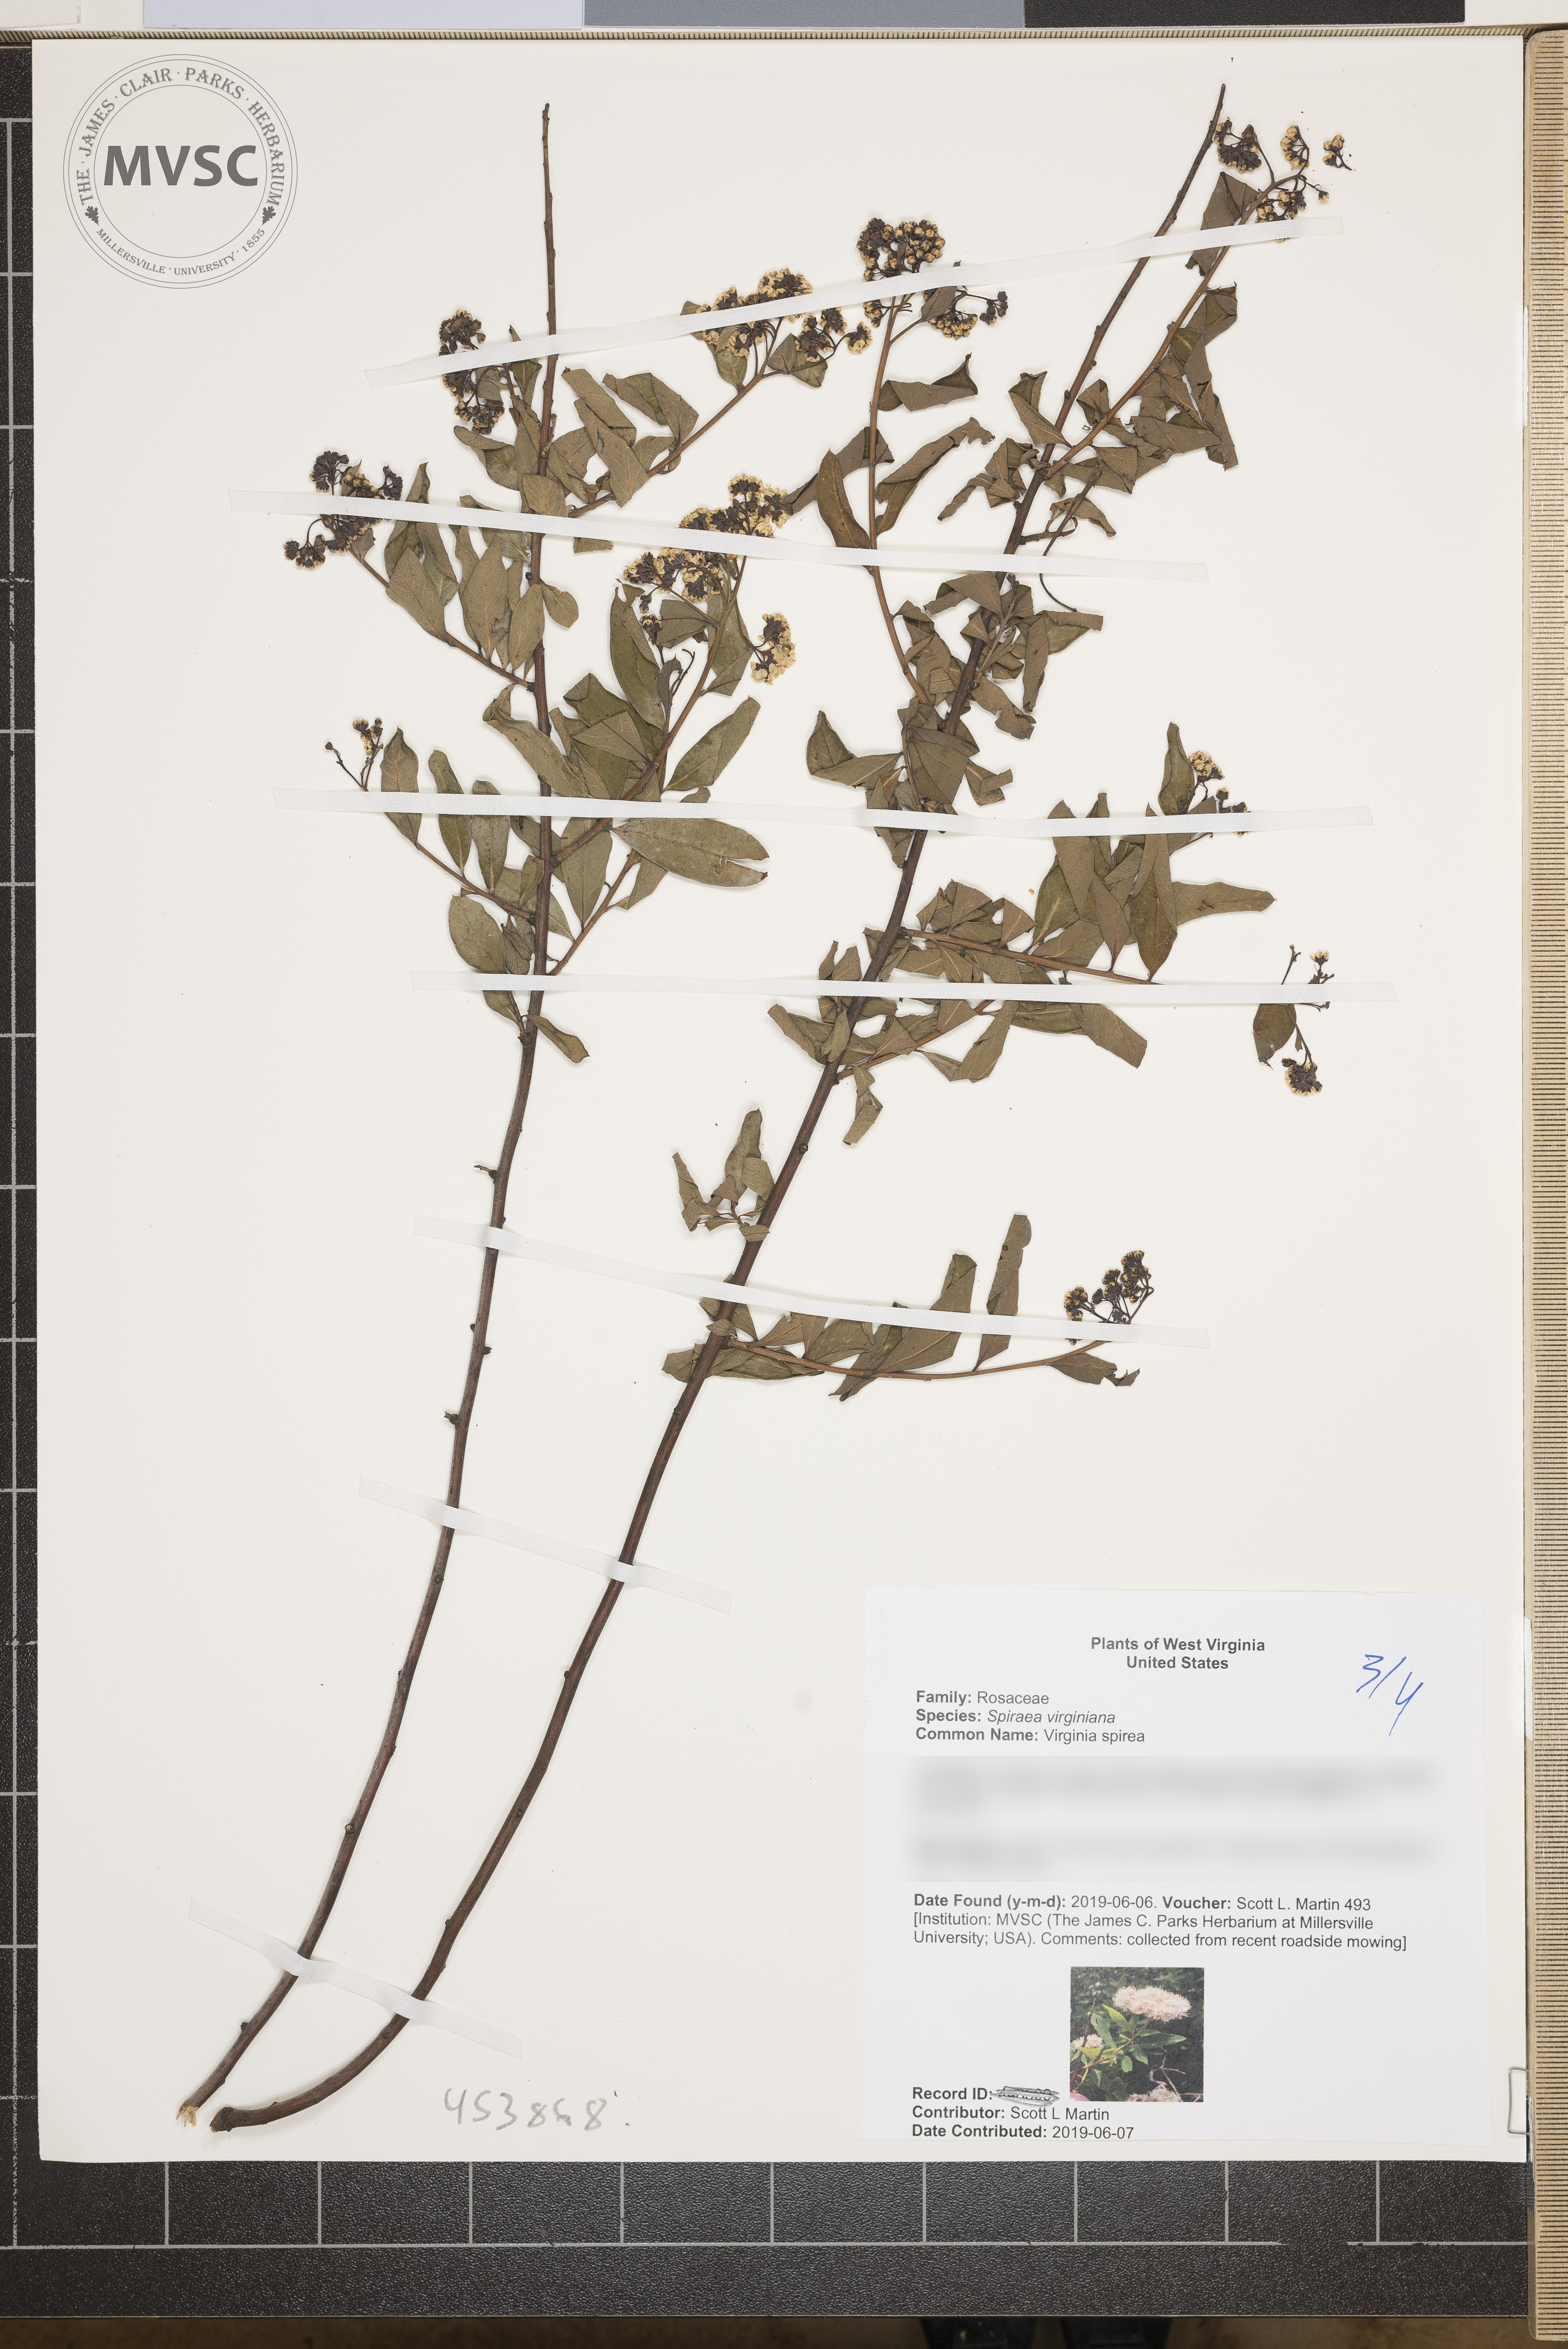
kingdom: Plantae
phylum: Tracheophyta
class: Magnoliopsida
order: Rosales
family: Rosaceae
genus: Spiraea
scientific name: Spiraea virginiana
